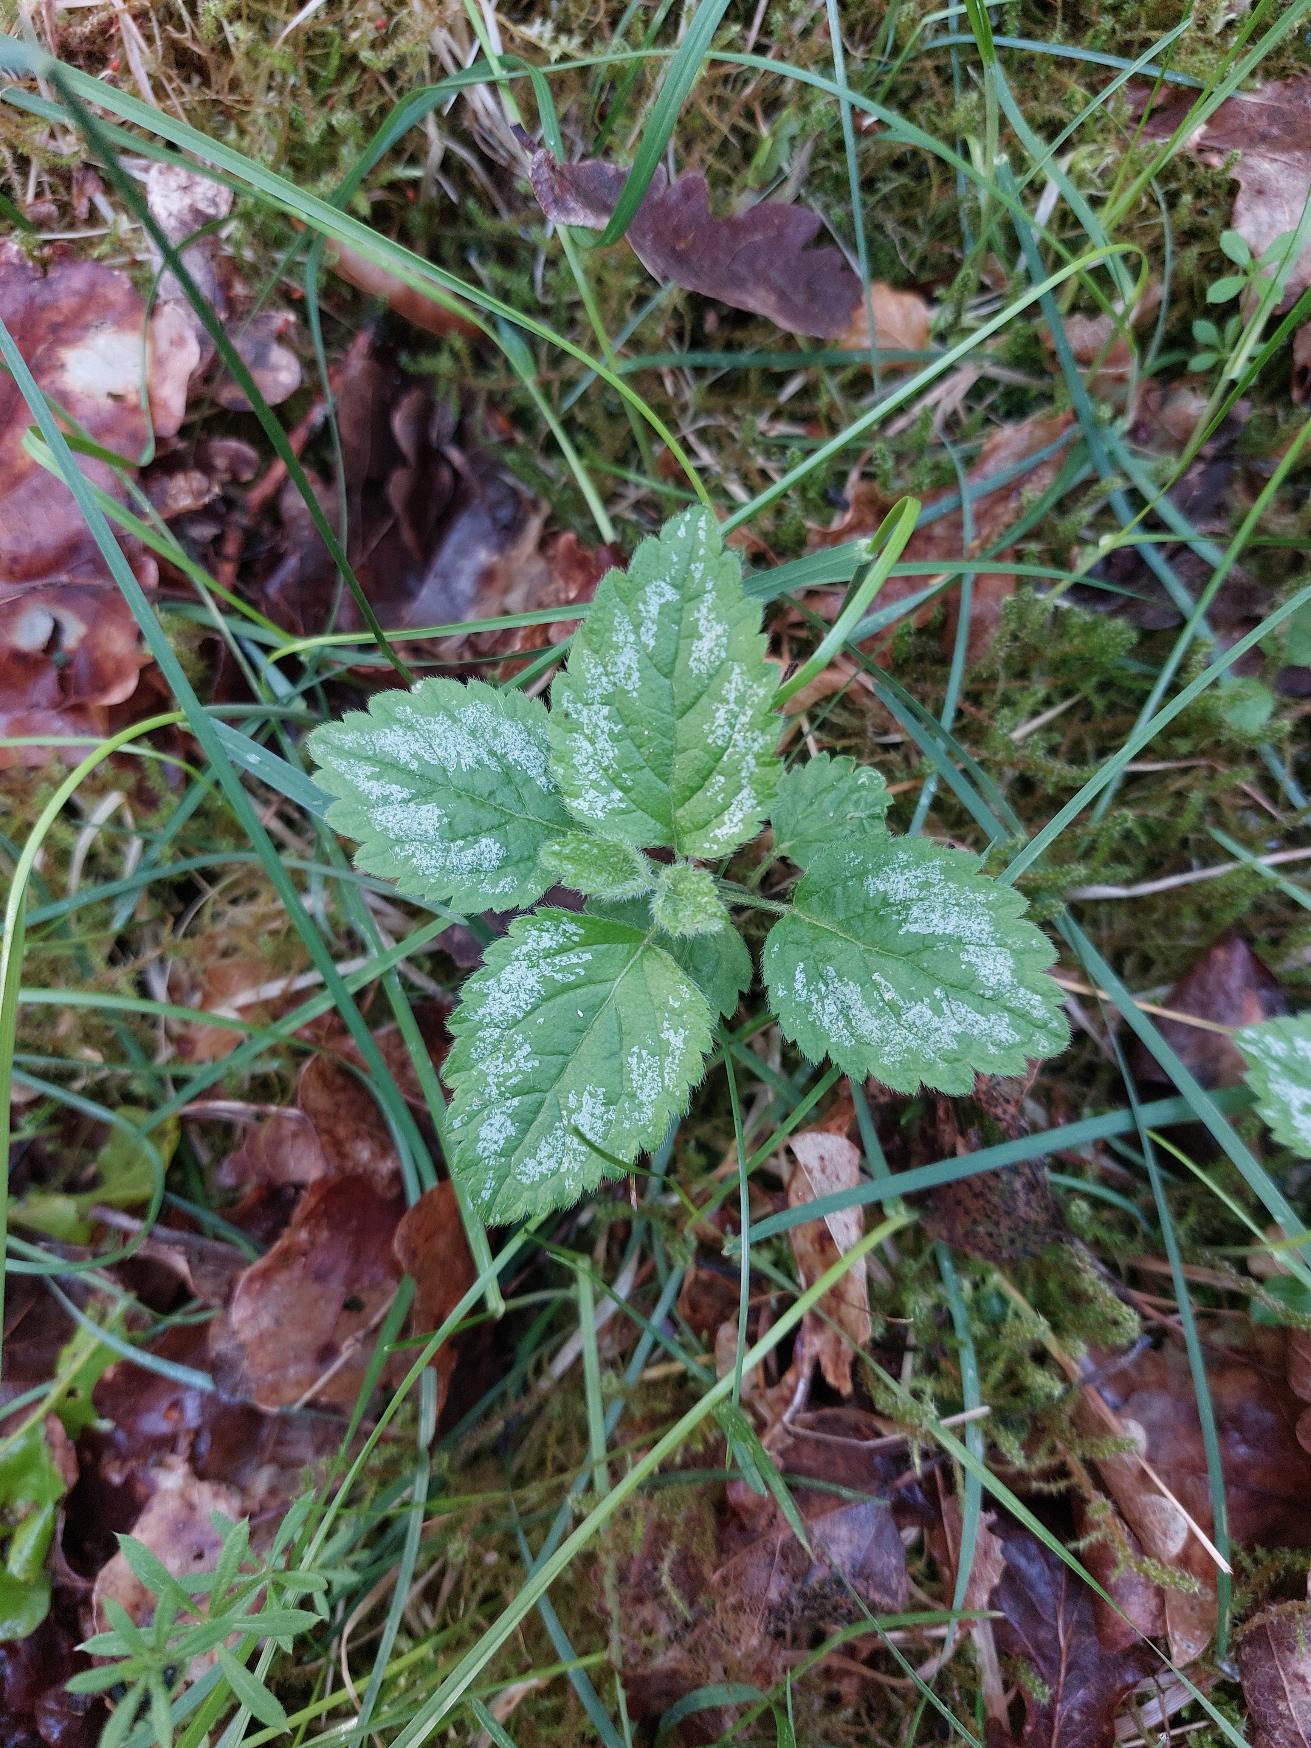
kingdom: Plantae
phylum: Tracheophyta
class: Magnoliopsida
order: Lamiales
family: Lamiaceae
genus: Lamium
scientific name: Lamium galeobdolon
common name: Have-guldnælde
